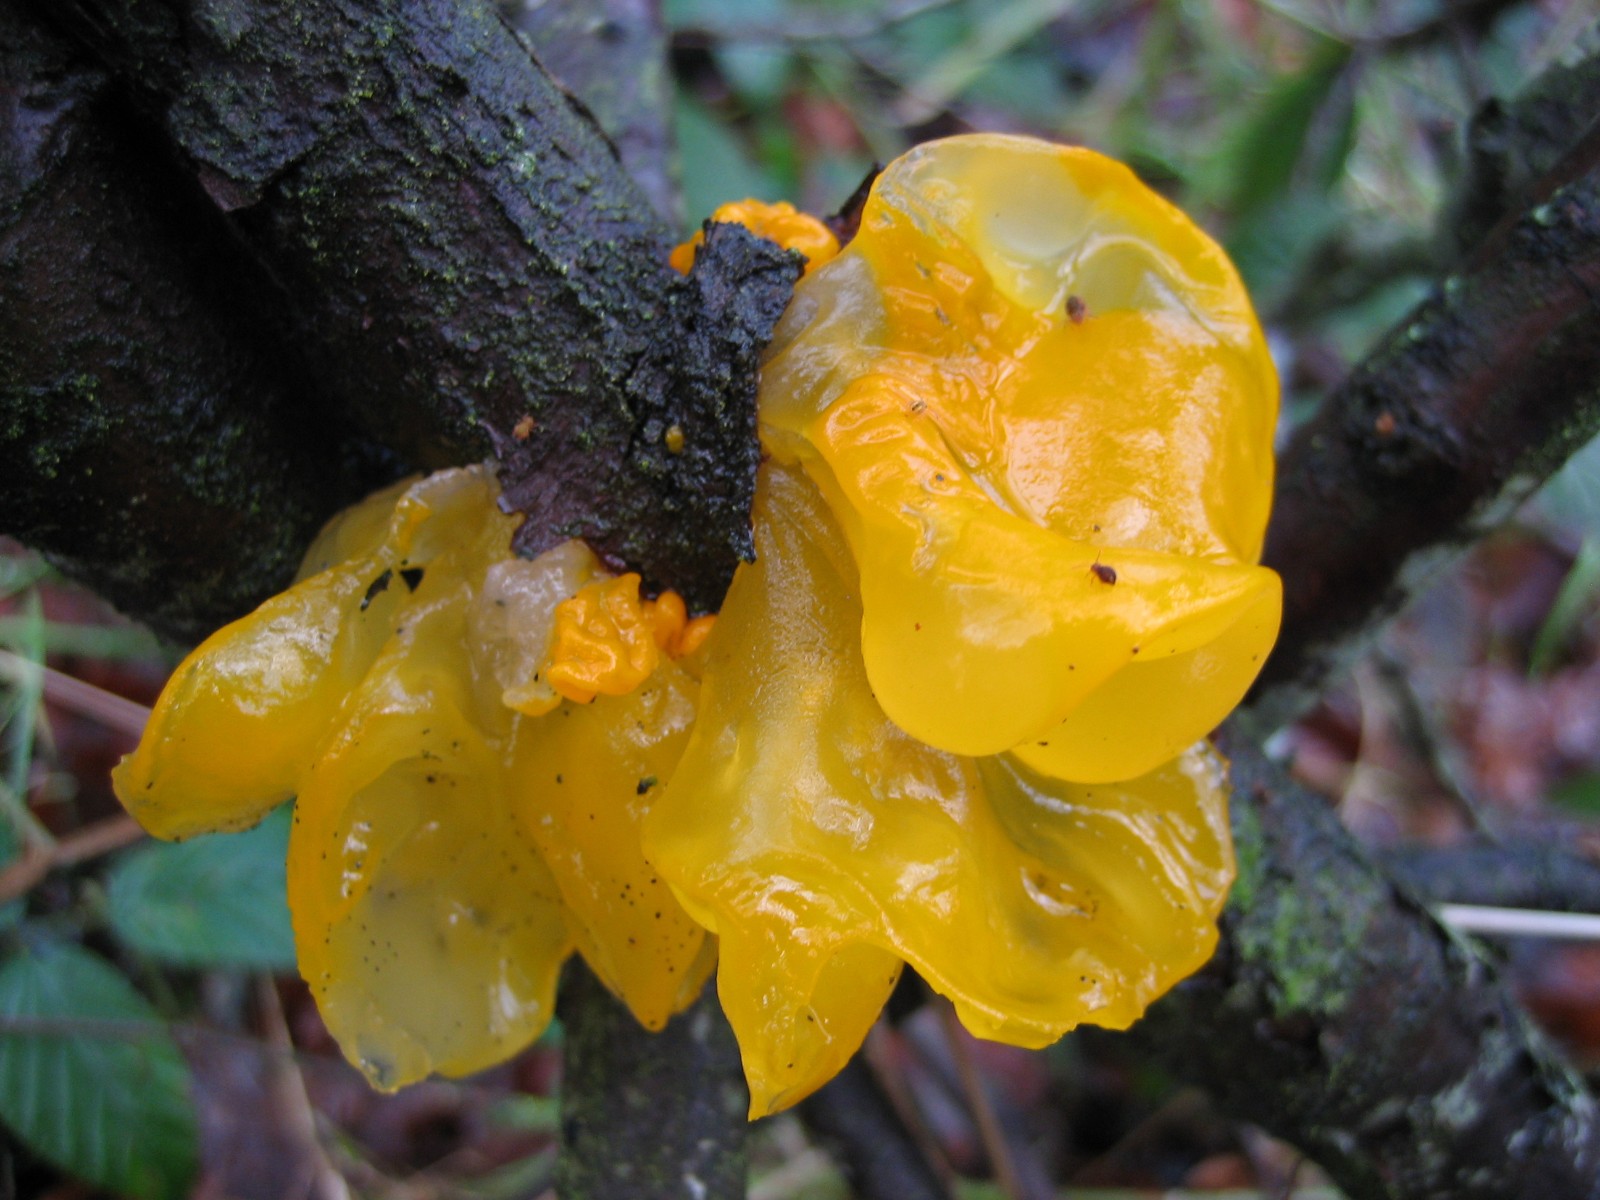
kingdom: Fungi
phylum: Basidiomycota
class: Tremellomycetes
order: Tremellales
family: Tremellaceae
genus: Tremella
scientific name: Tremella mesenterica
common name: gul bævresvamp
